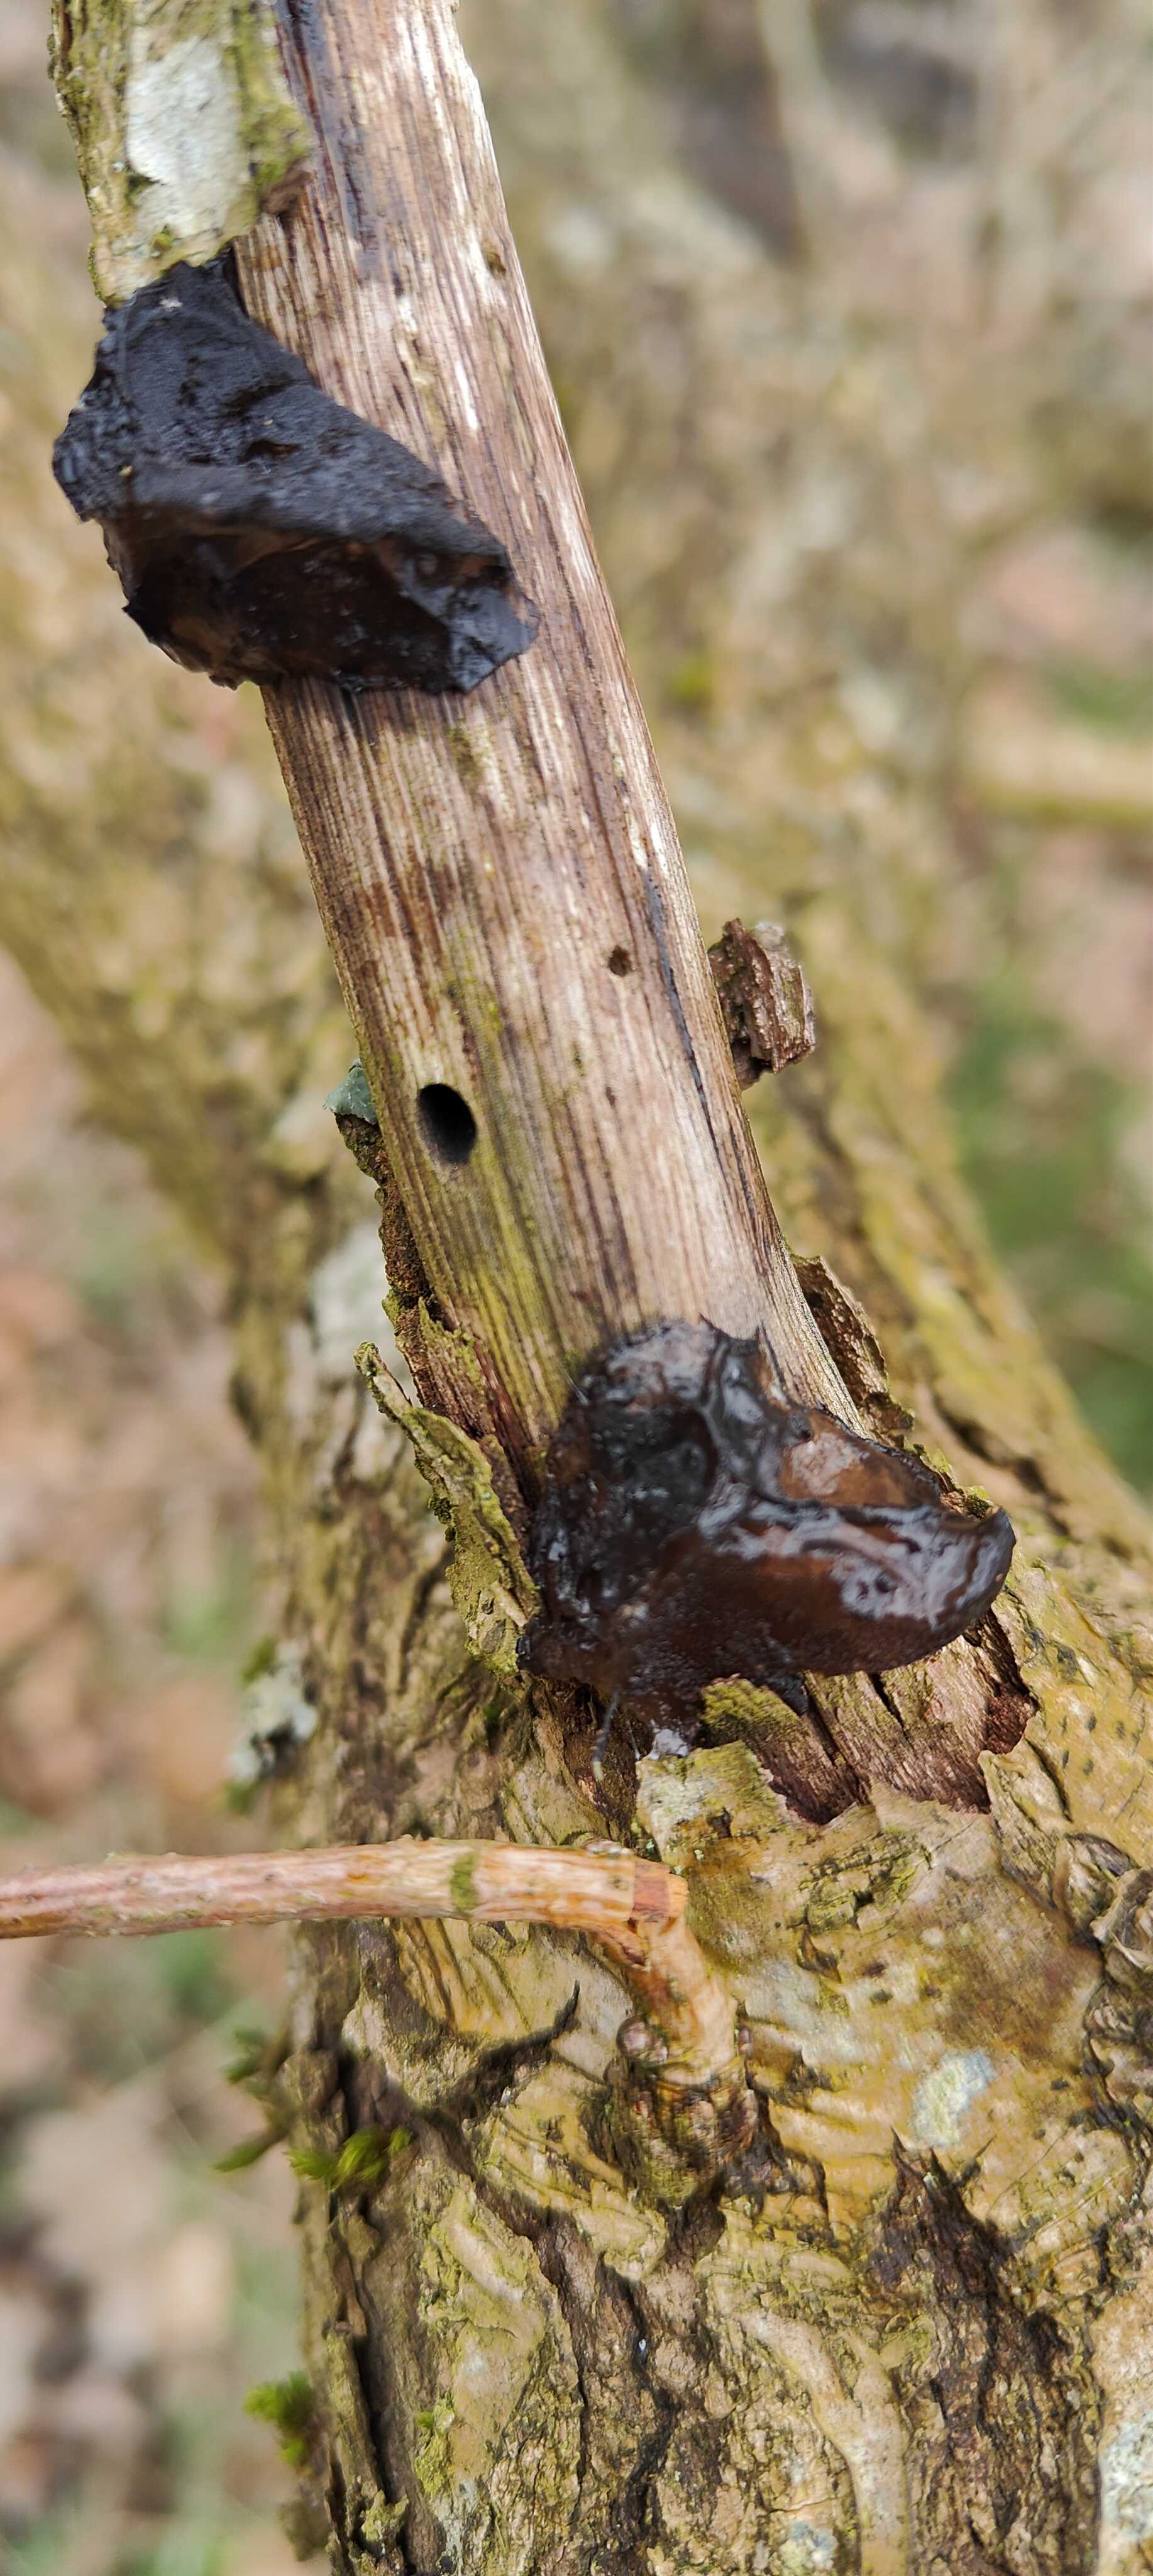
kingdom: Fungi
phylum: Basidiomycota
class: Agaricomycetes
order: Auriculariales
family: Auriculariaceae
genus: Exidia
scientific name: Exidia glandulosa
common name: ege-bævretop
